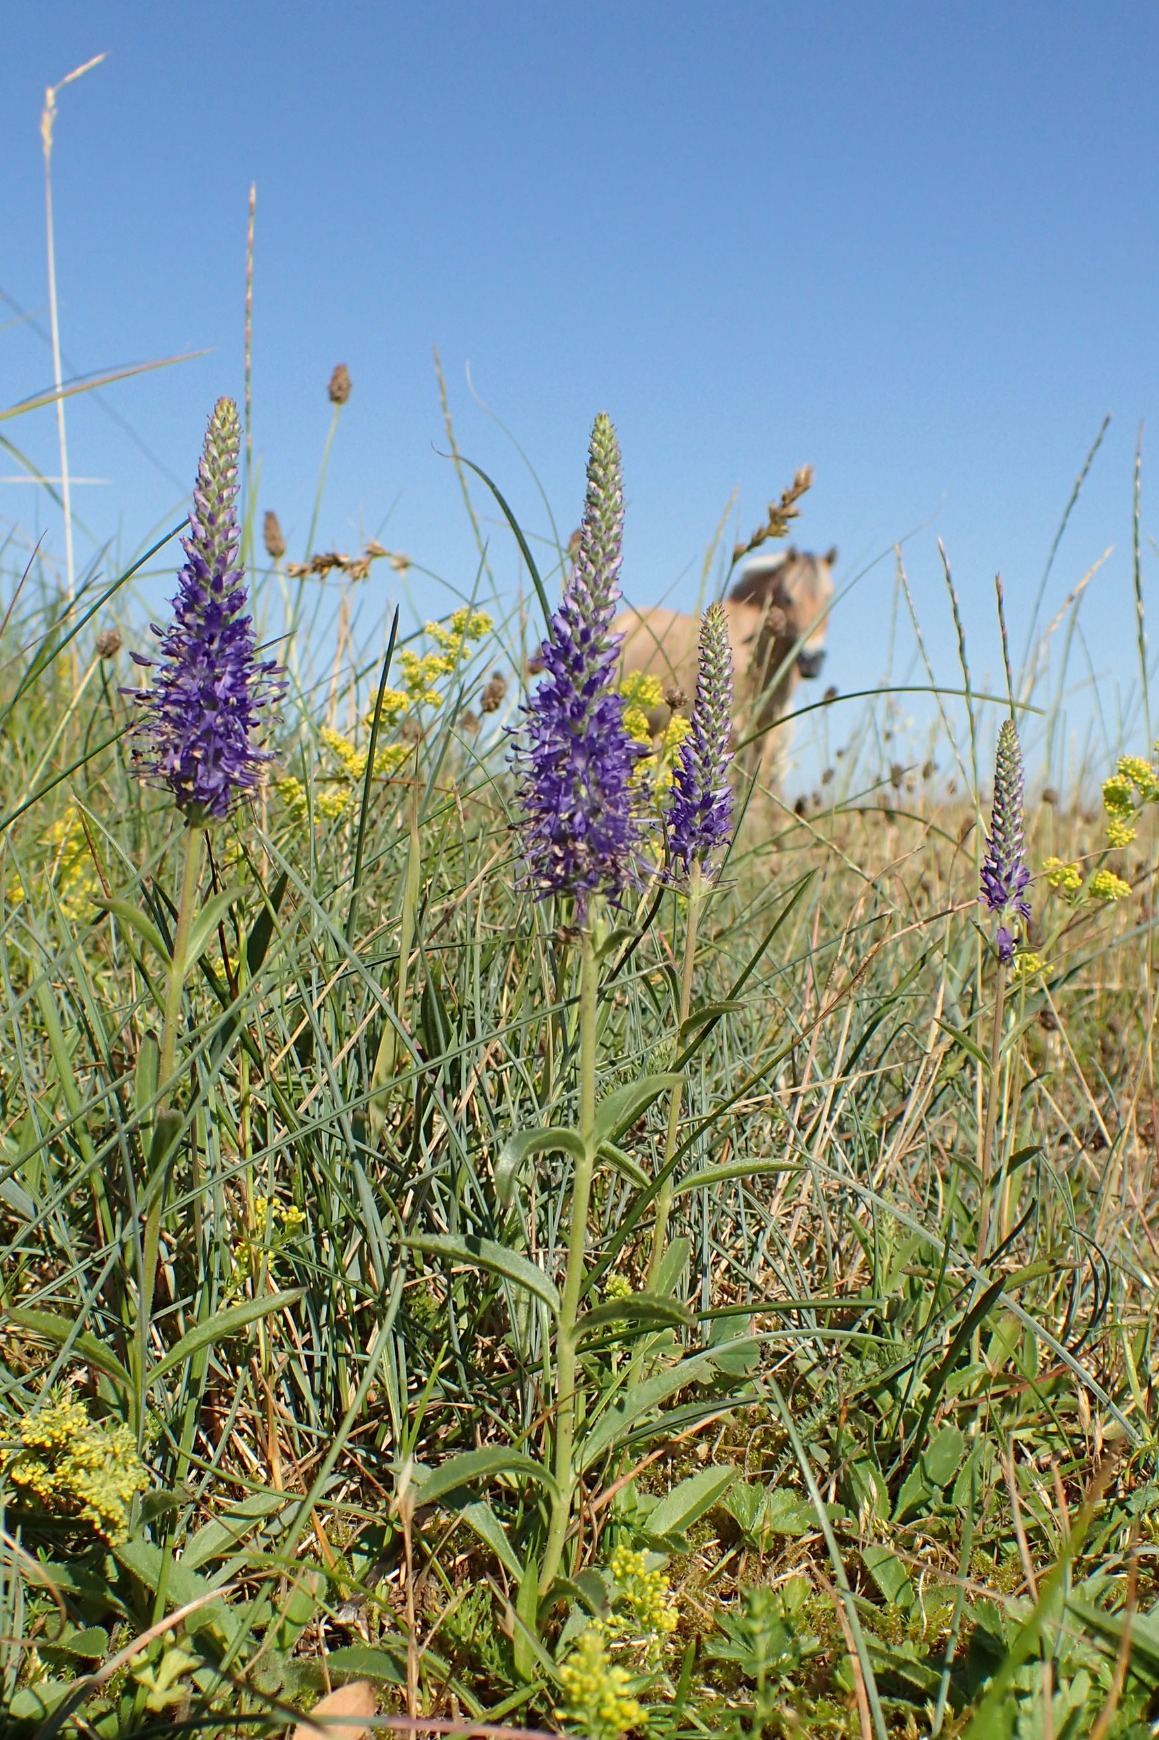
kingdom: Plantae
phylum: Tracheophyta
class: Magnoliopsida
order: Lamiales
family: Plantaginaceae
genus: Veronica
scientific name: Veronica spicata
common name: Aks-ærenpris
